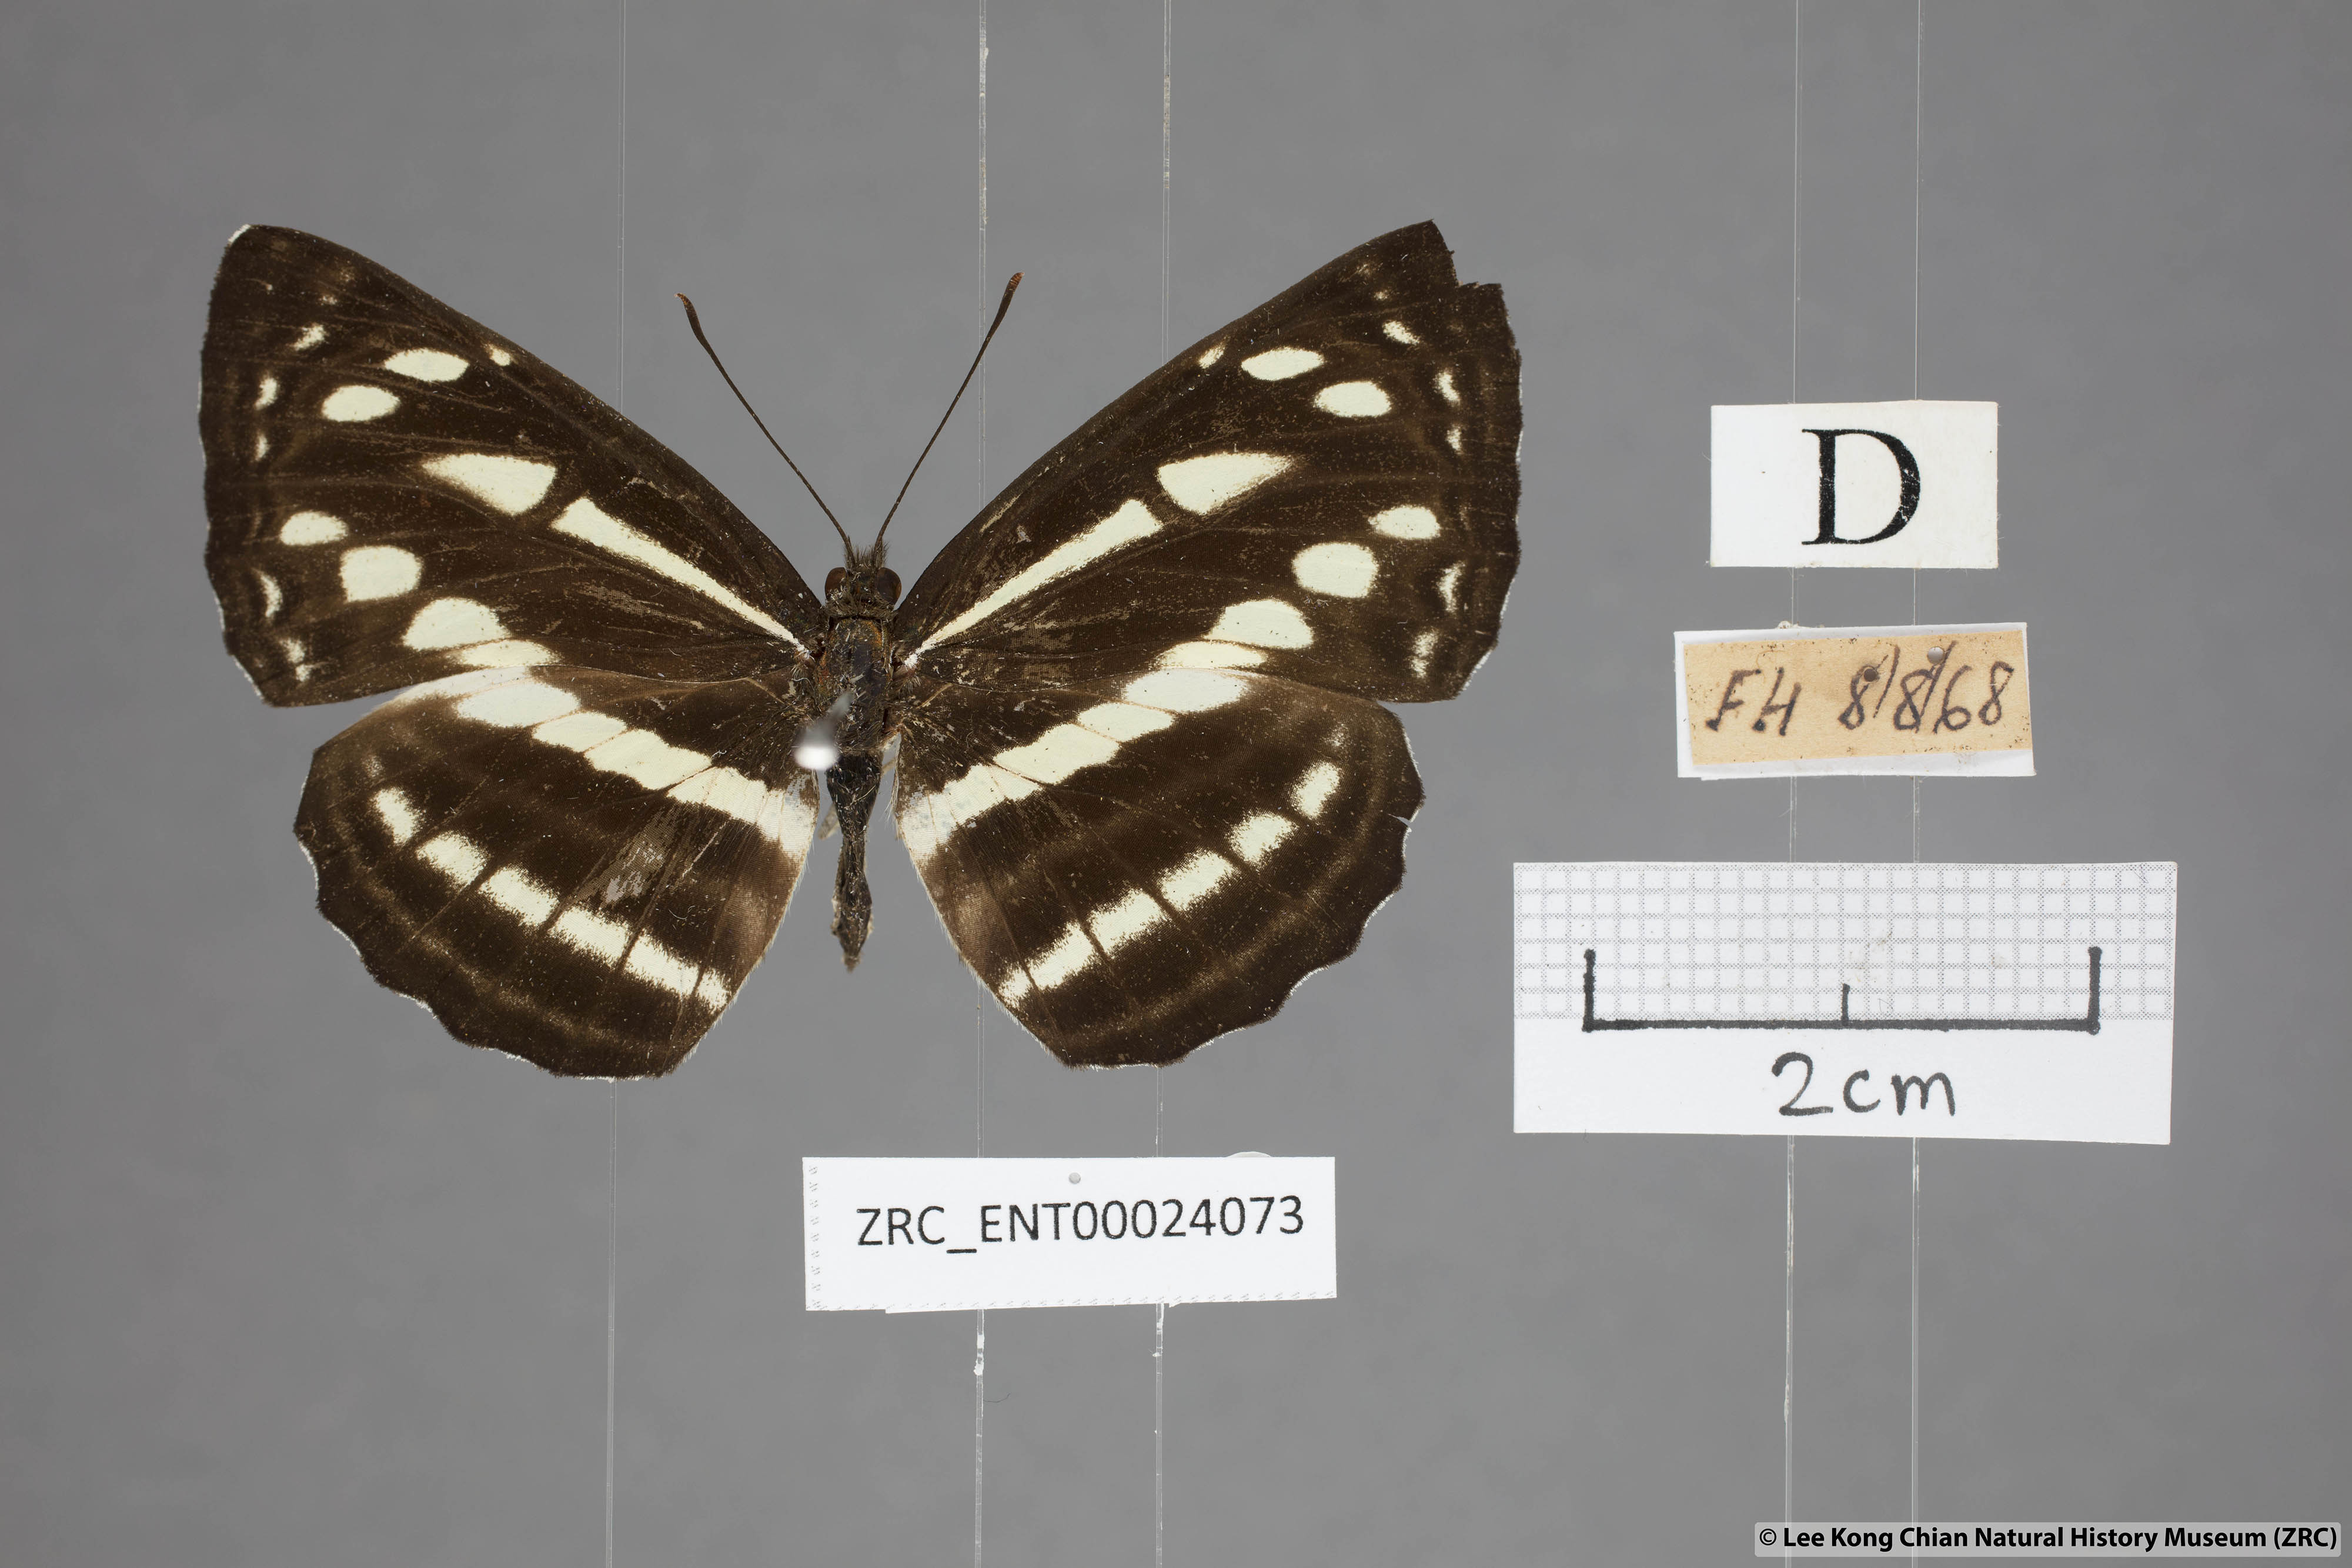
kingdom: Animalia
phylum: Arthropoda
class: Insecta
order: Lepidoptera
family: Nymphalidae
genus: Neptis
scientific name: Neptis soma
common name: Cream-spotted sailor
